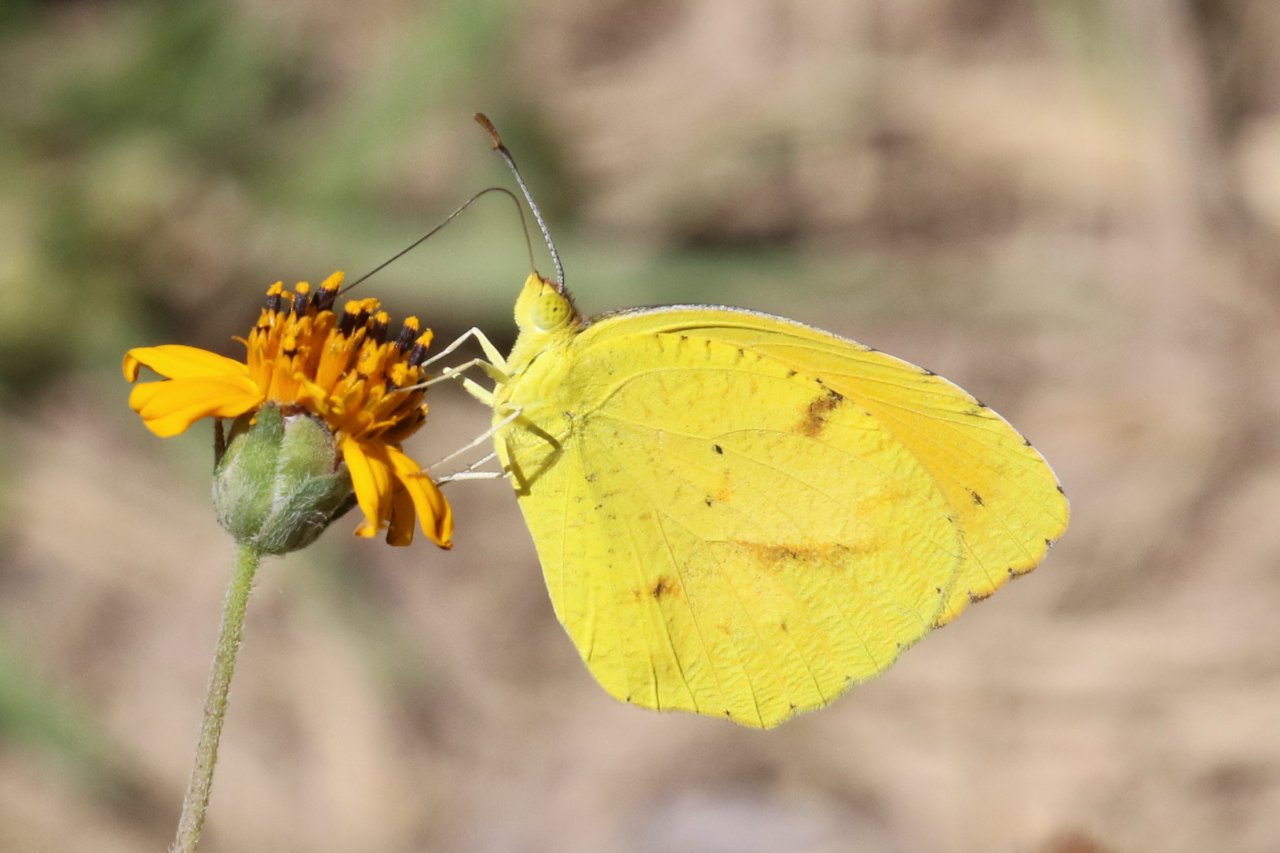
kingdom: Animalia
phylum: Arthropoda
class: Insecta
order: Lepidoptera
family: Pieridae
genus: Abaeis
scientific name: Abaeis nicippe
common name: Sleepy Orange
